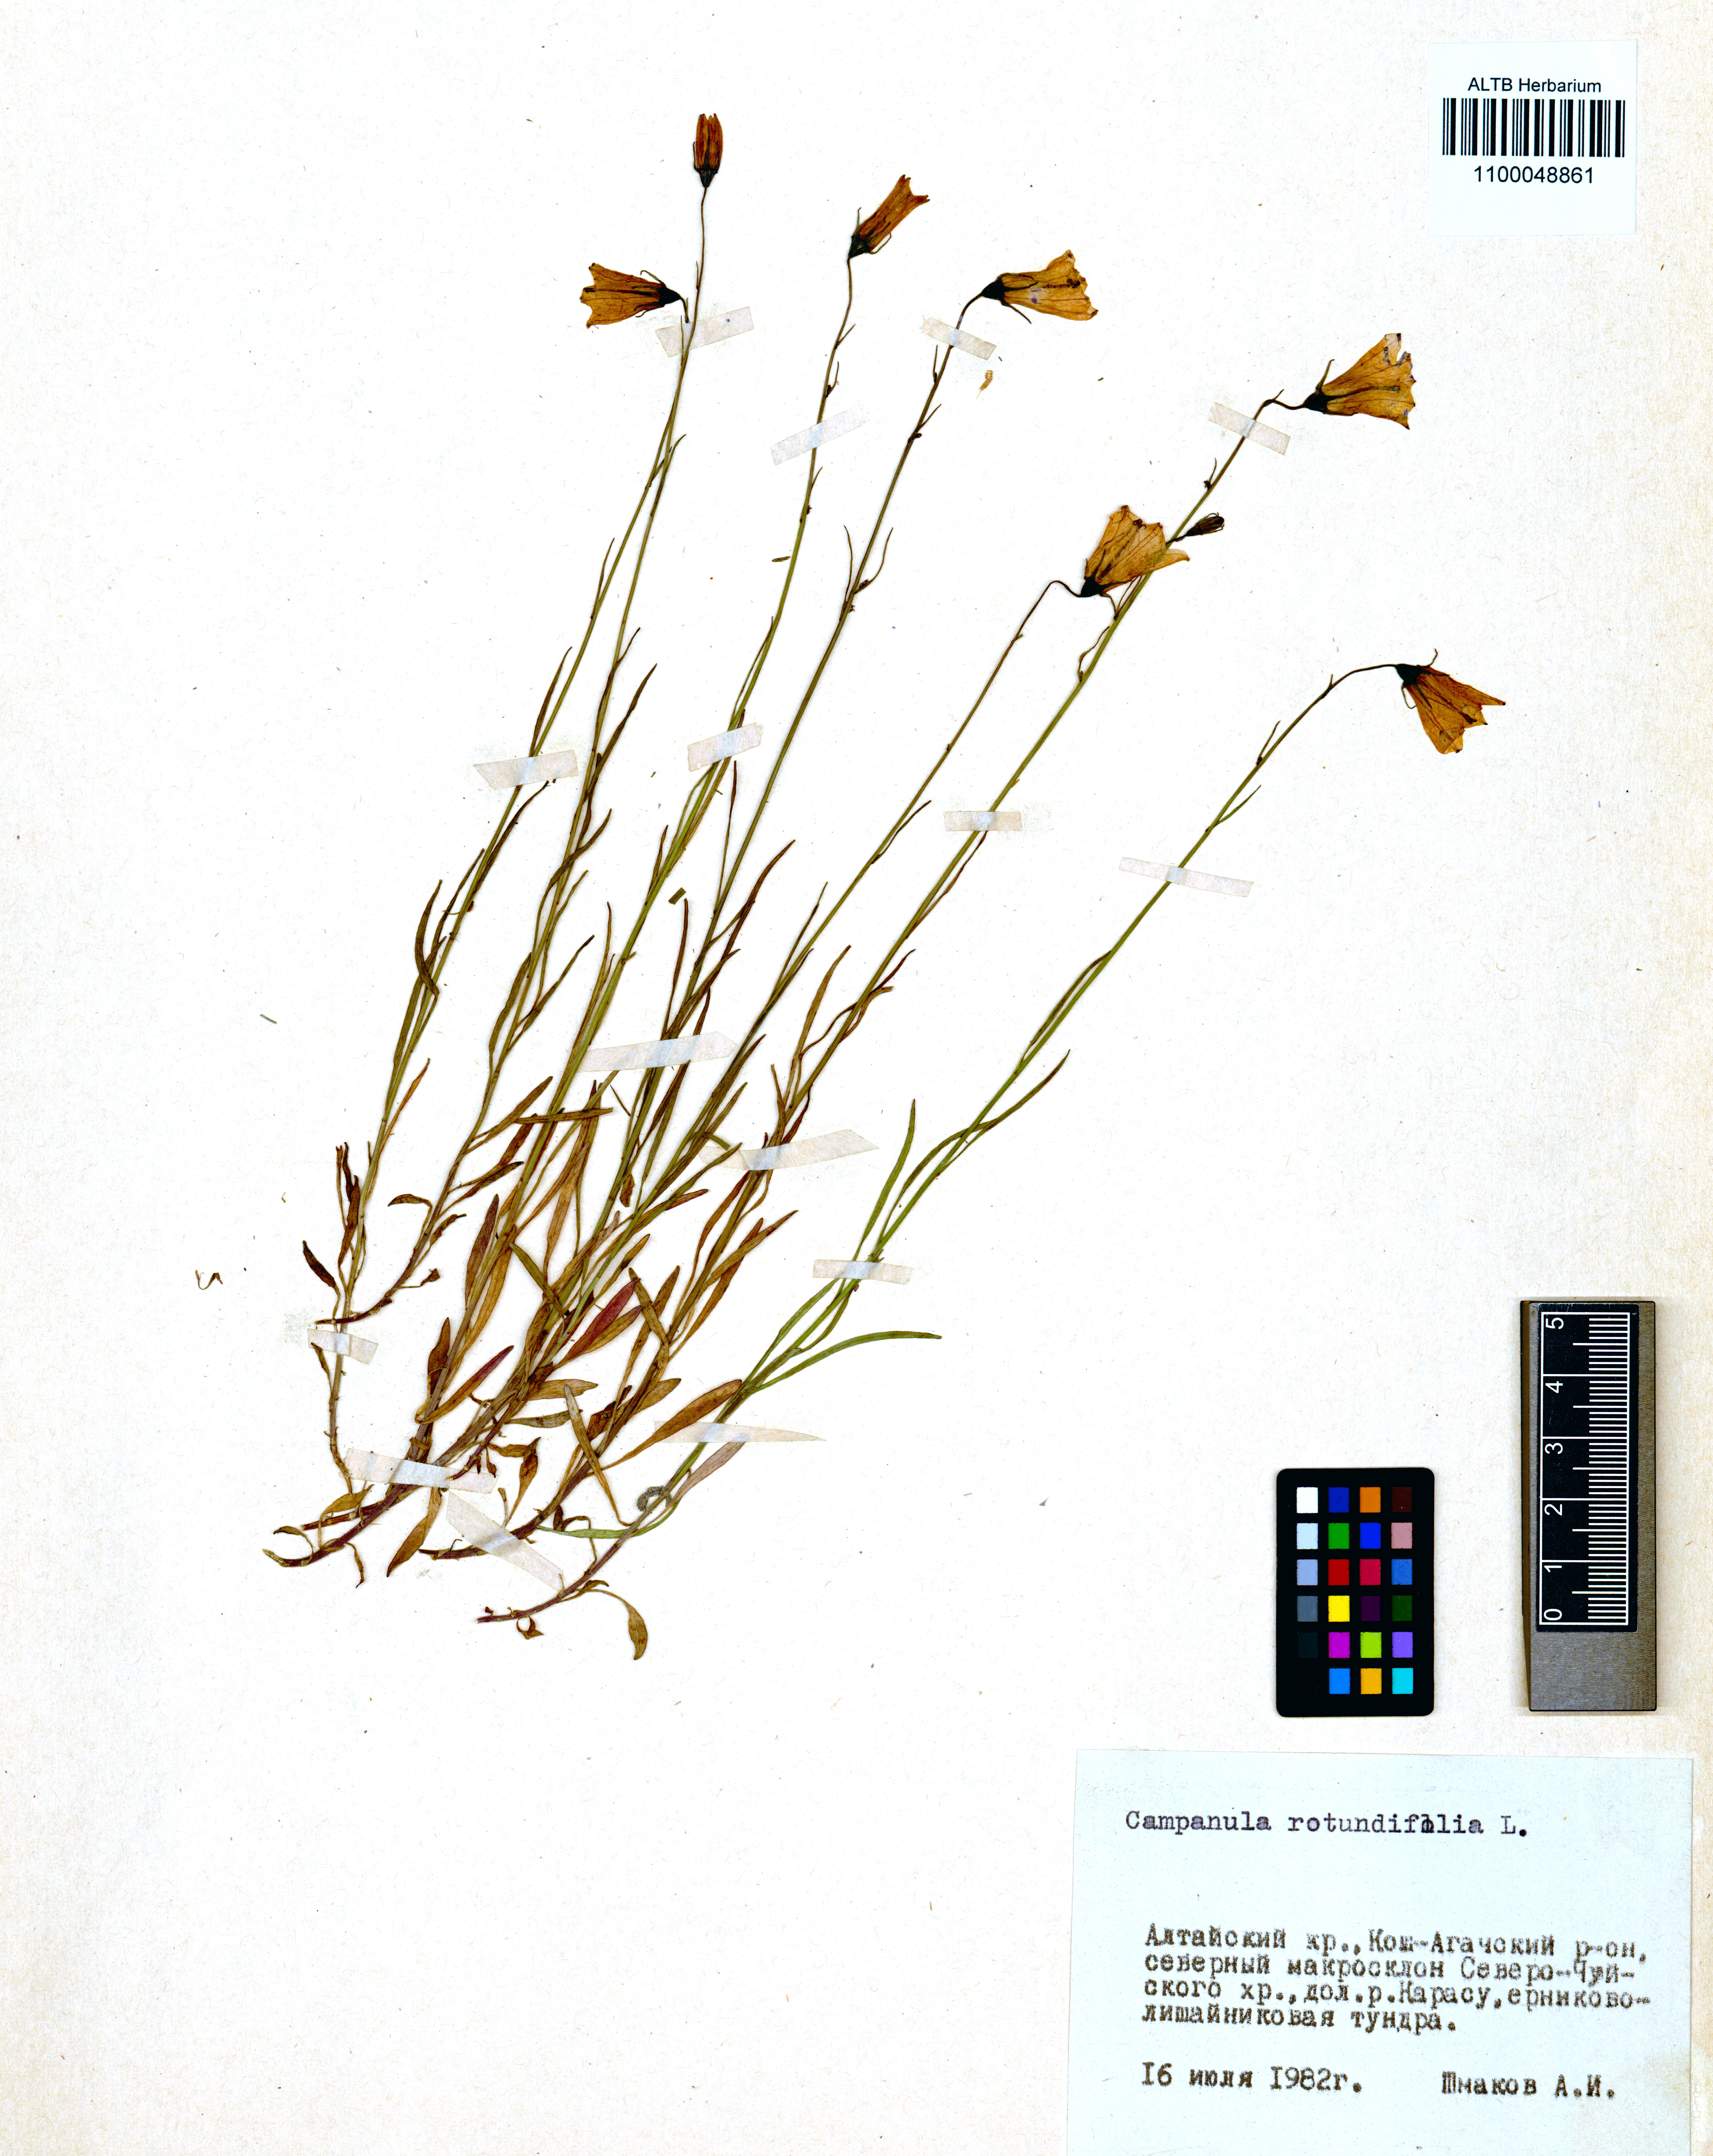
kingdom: Plantae
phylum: Tracheophyta
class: Magnoliopsida
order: Asterales
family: Campanulaceae
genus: Campanula
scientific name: Campanula rotundifolia
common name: Harebell
